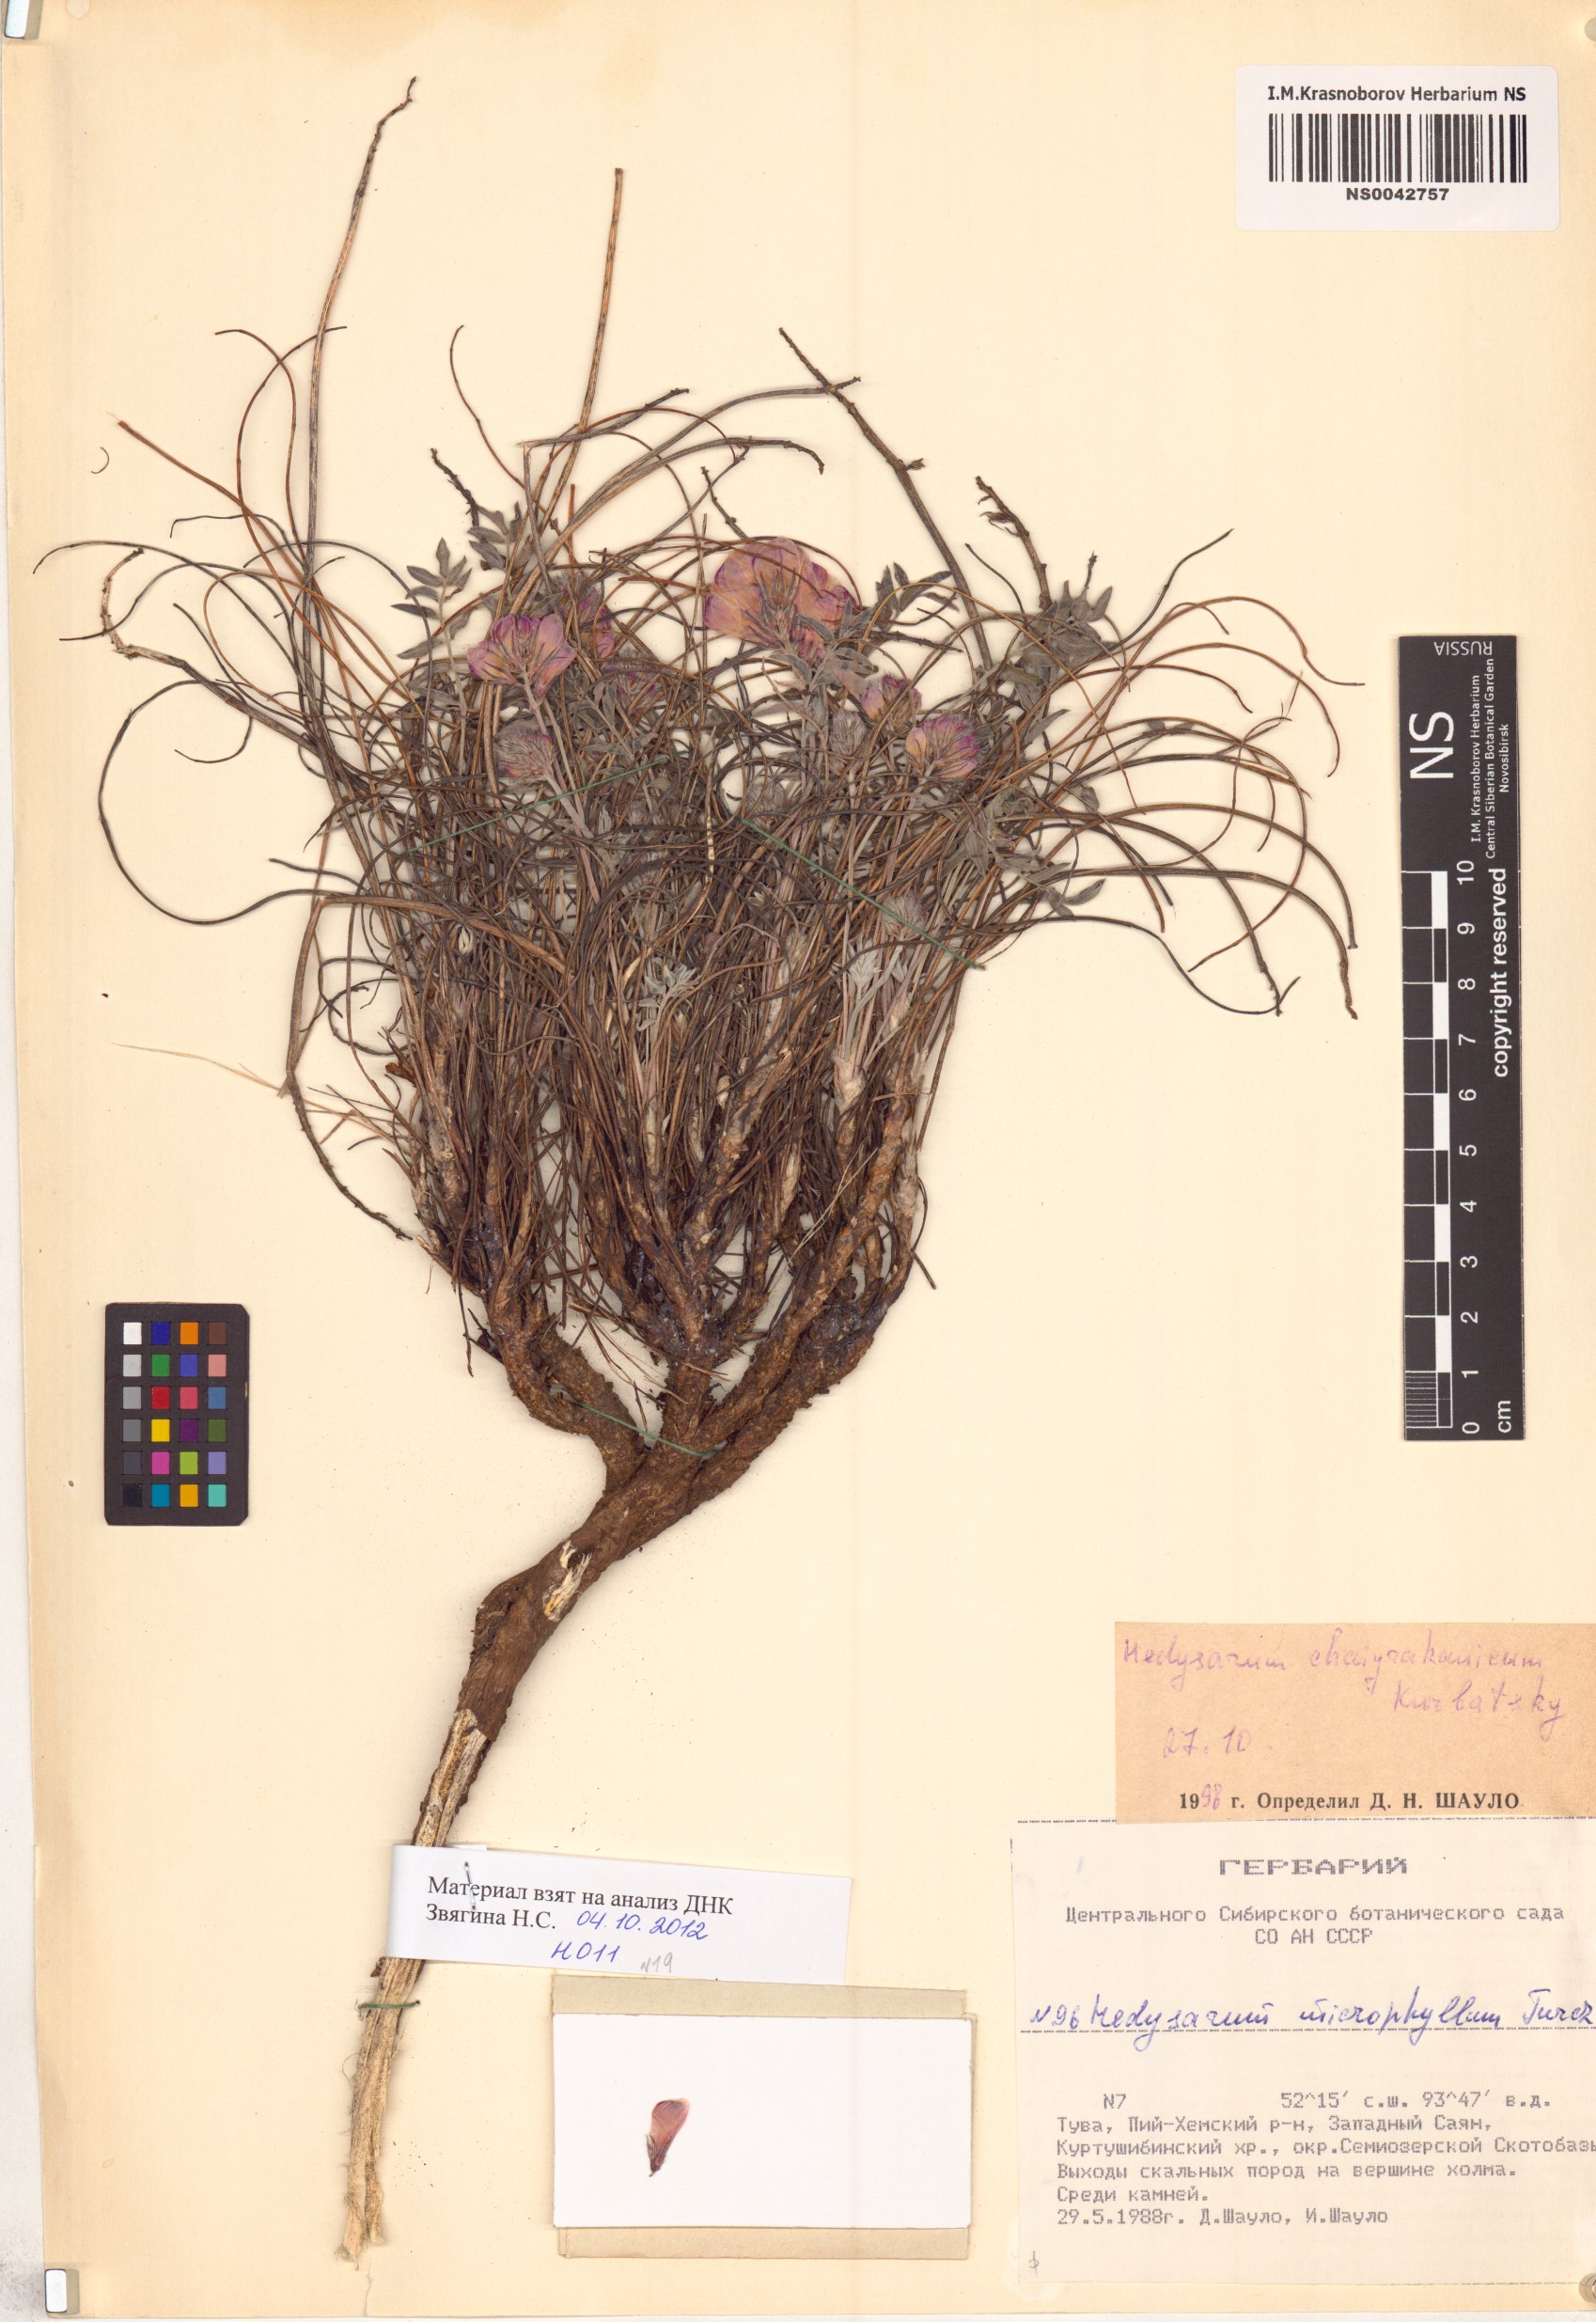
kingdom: Plantae
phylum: Tracheophyta
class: Magnoliopsida
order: Fabales
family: Fabaceae
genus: Hedysarum
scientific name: Hedysarum setigerum
